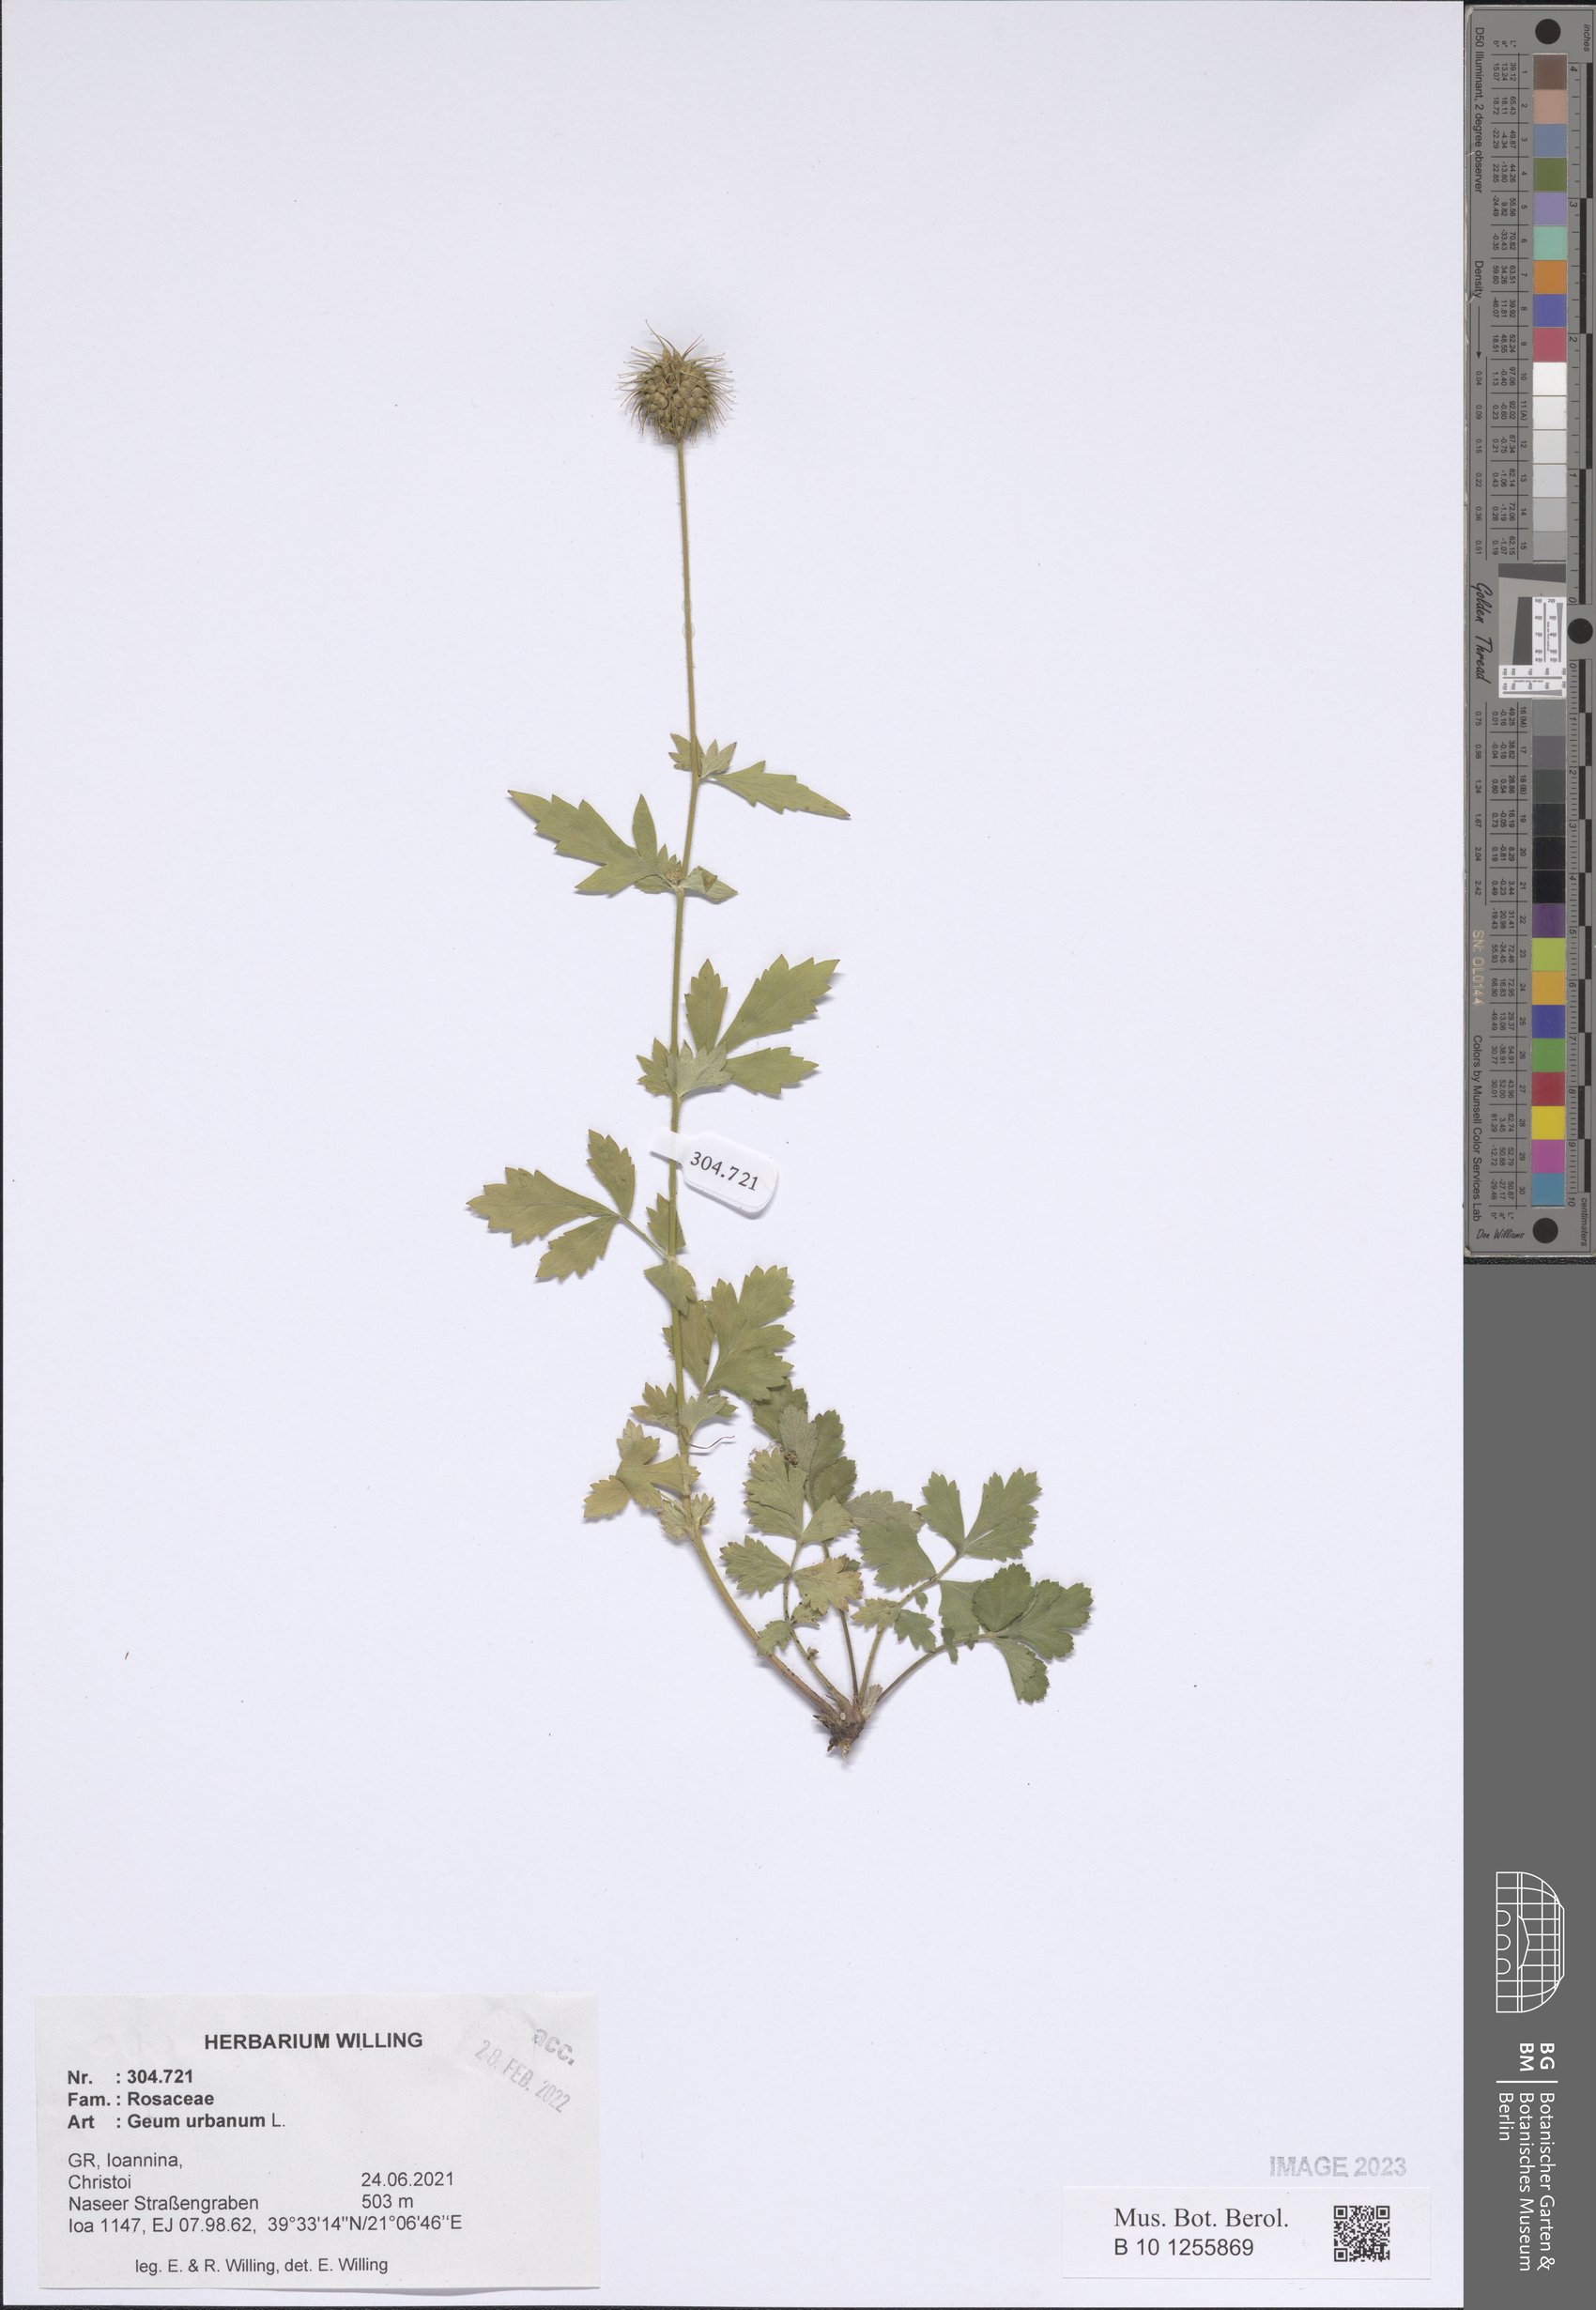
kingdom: Plantae
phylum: Tracheophyta
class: Magnoliopsida
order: Rosales
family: Rosaceae
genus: Geum
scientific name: Geum urbanum
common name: Wood avens
